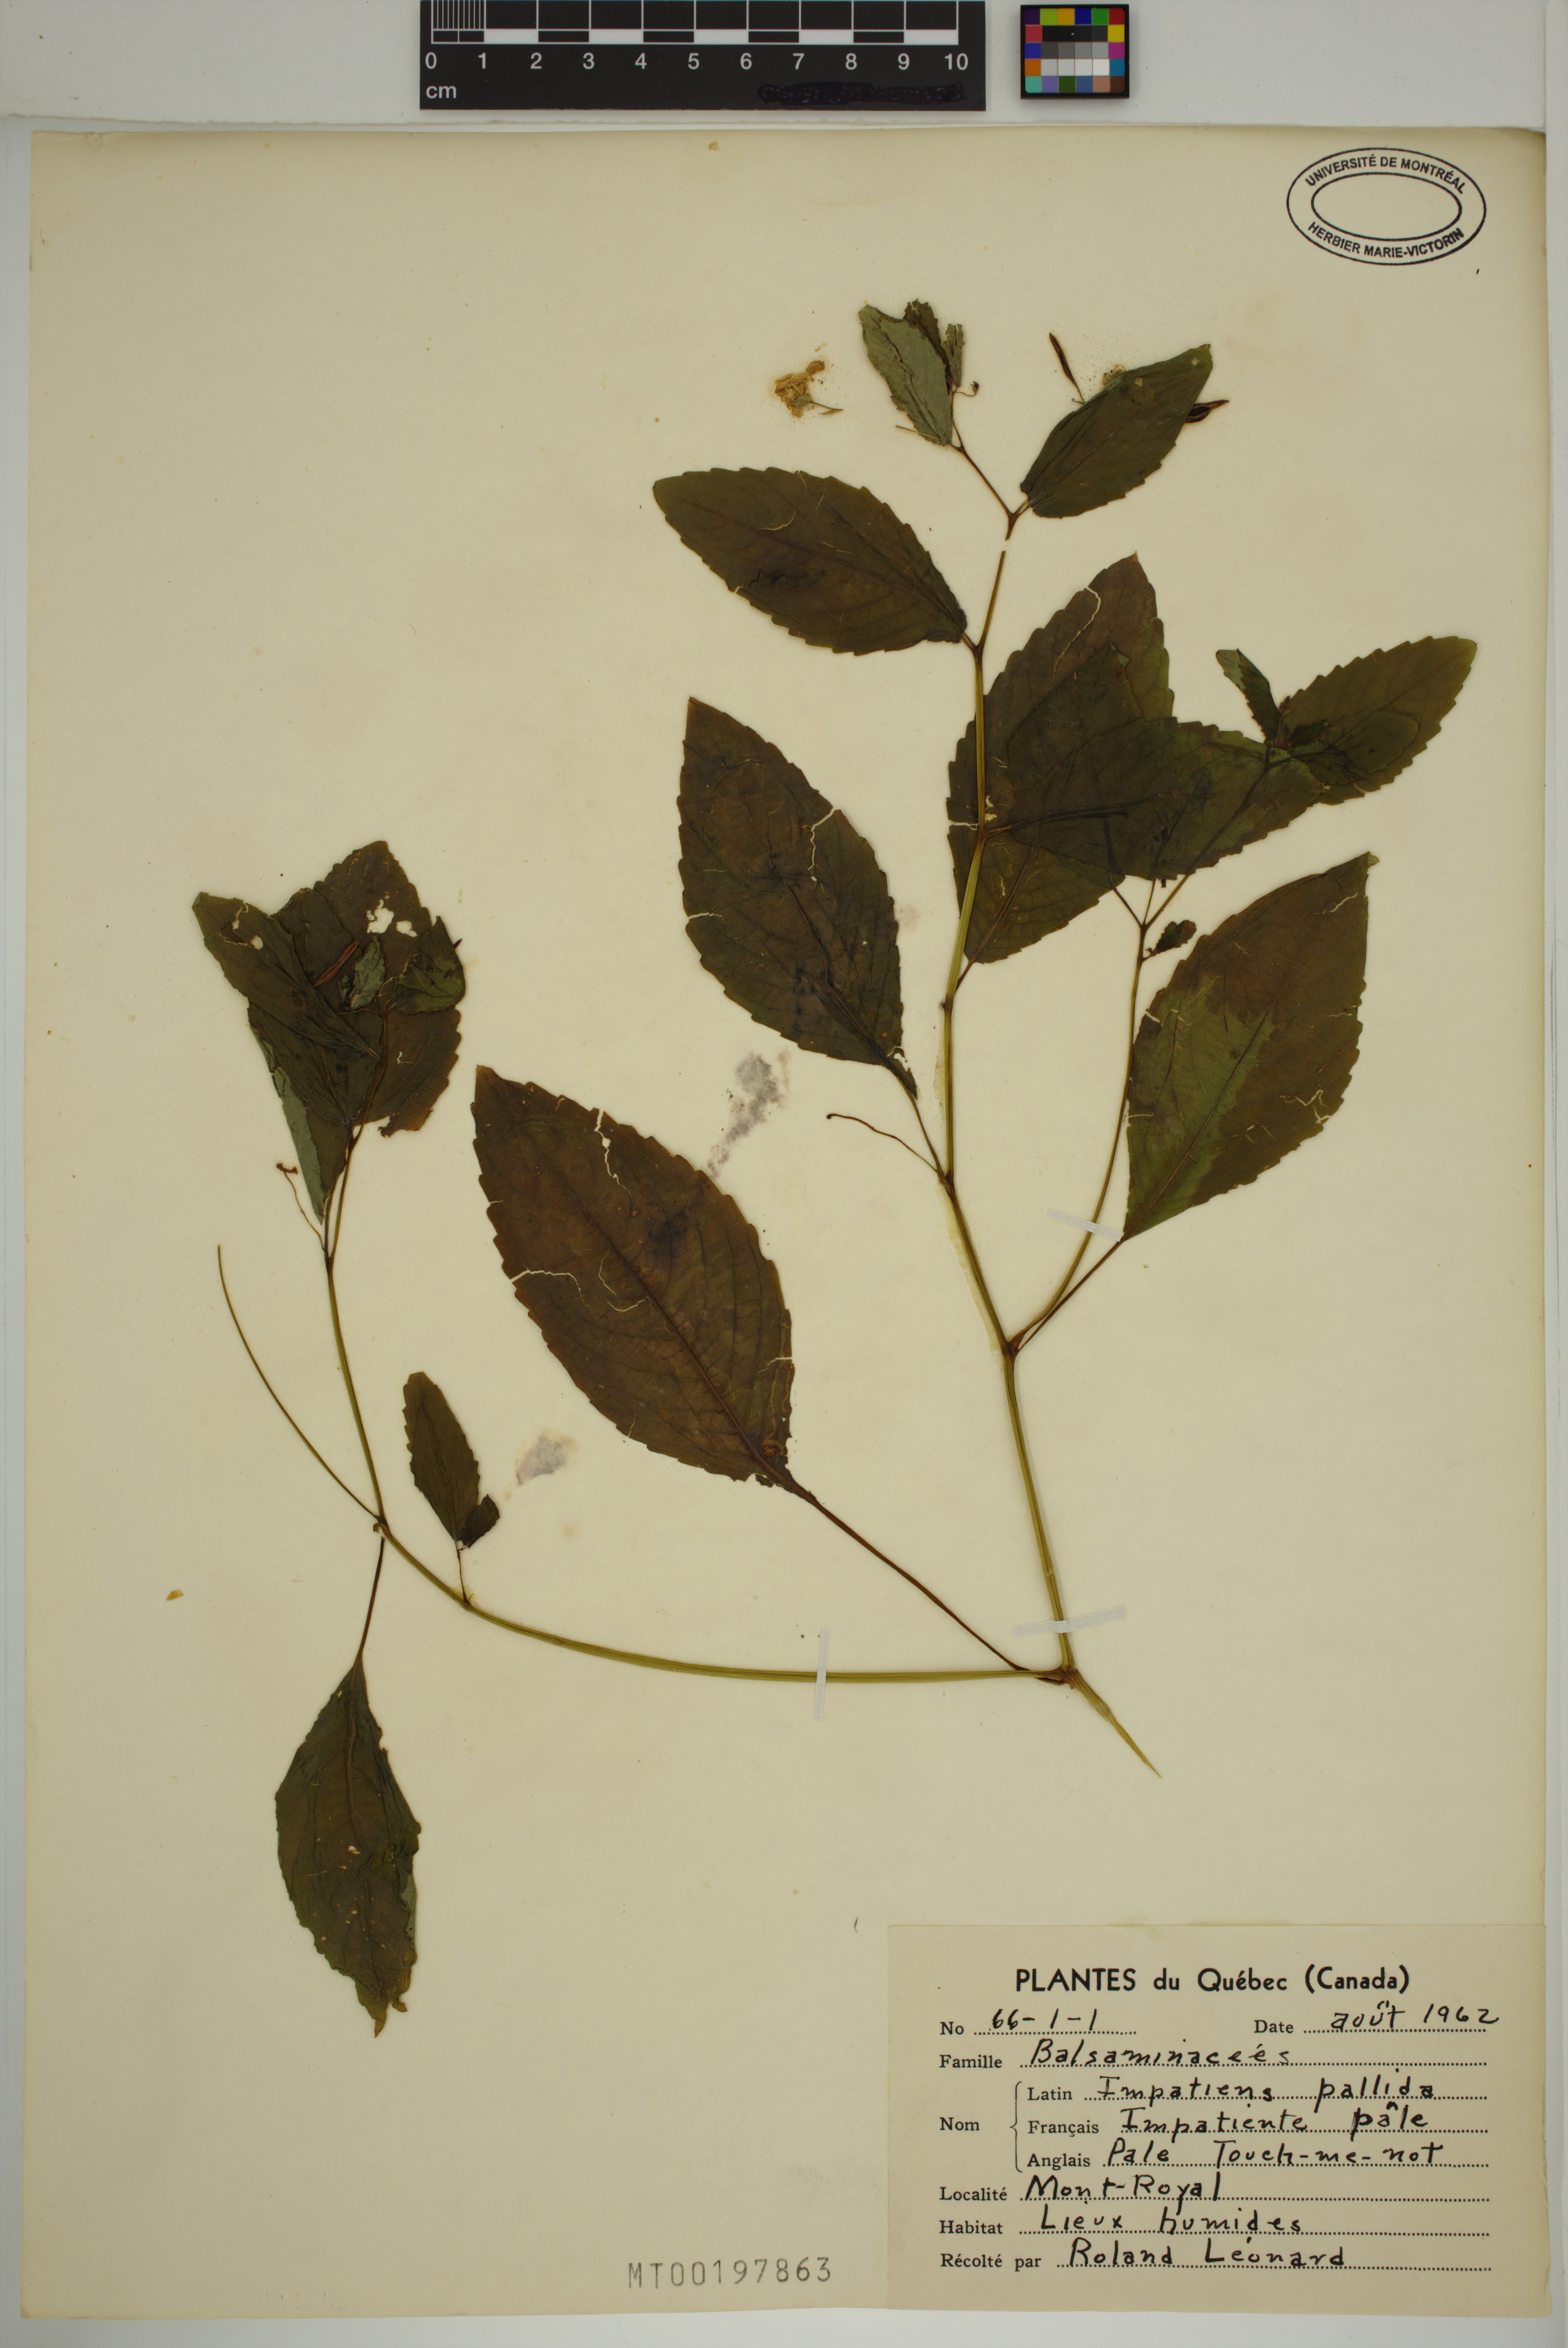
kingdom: Plantae
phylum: Tracheophyta
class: Magnoliopsida
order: Ericales
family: Balsaminaceae
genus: Impatiens
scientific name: Impatiens pallida
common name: Pale snapweed
